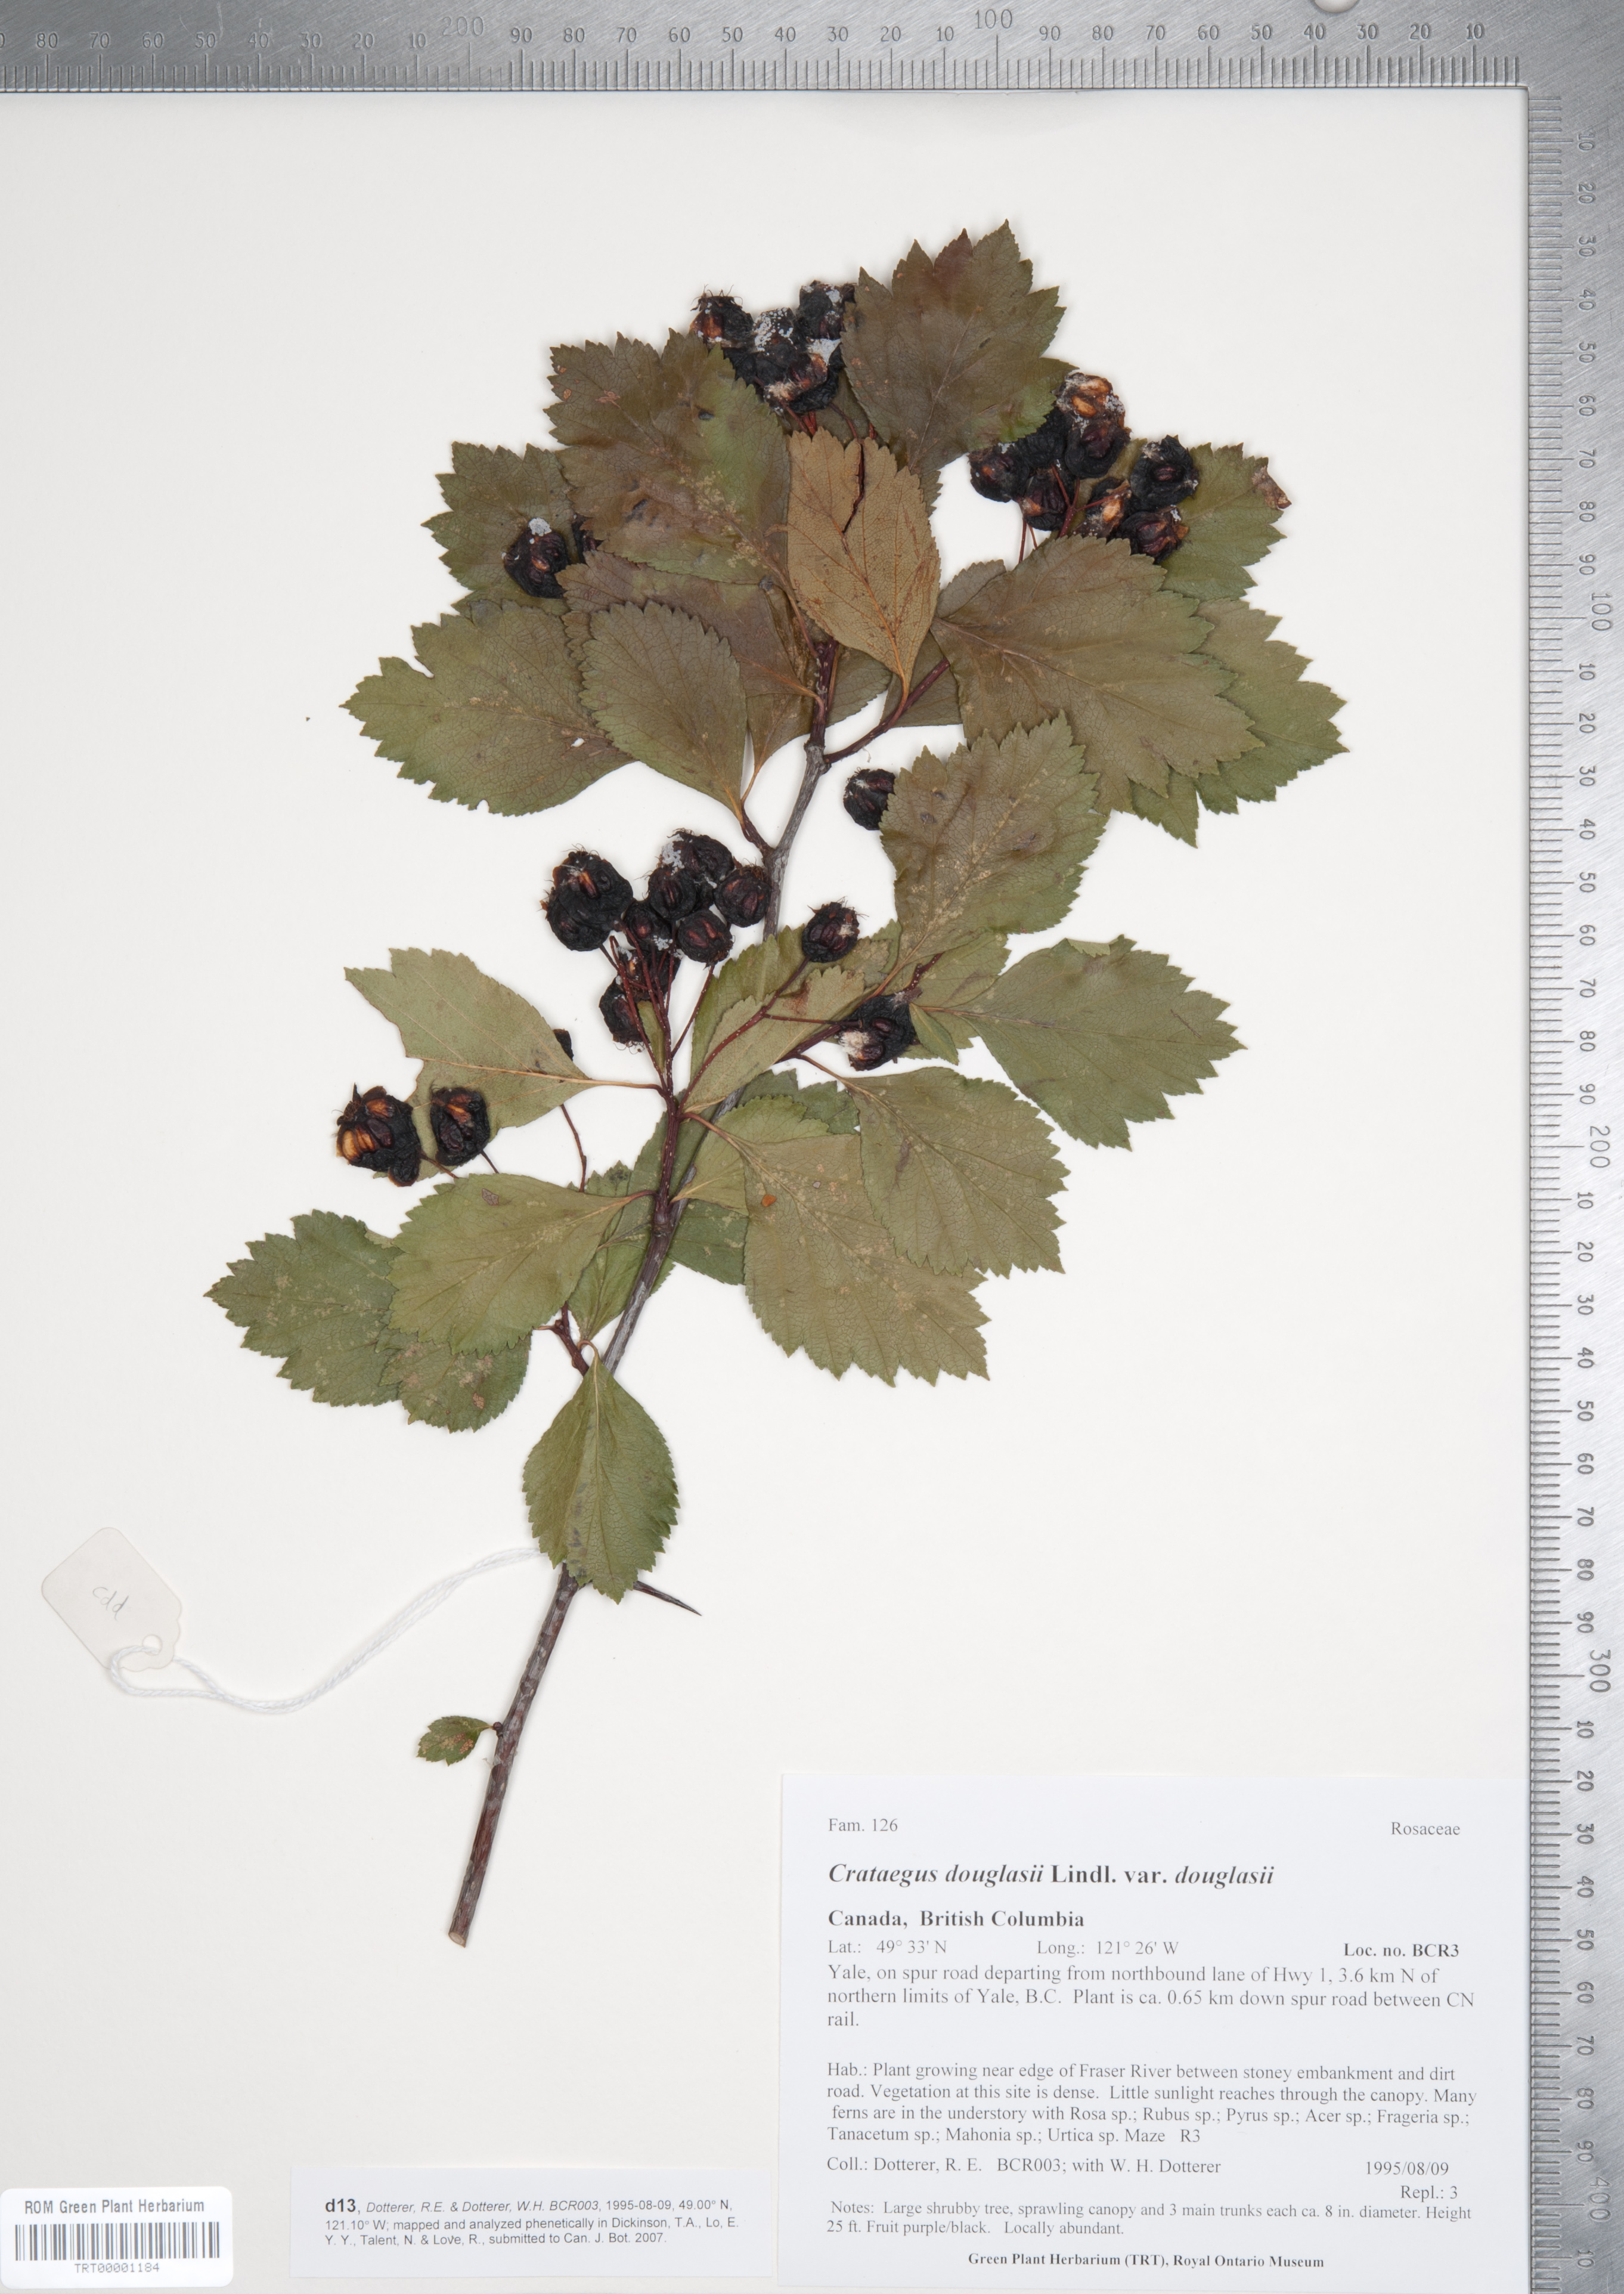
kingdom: Plantae
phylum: Tracheophyta
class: Magnoliopsida
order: Rosales
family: Rosaceae
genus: Crataegus
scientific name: Crataegus douglasii
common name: Black hawthorn
